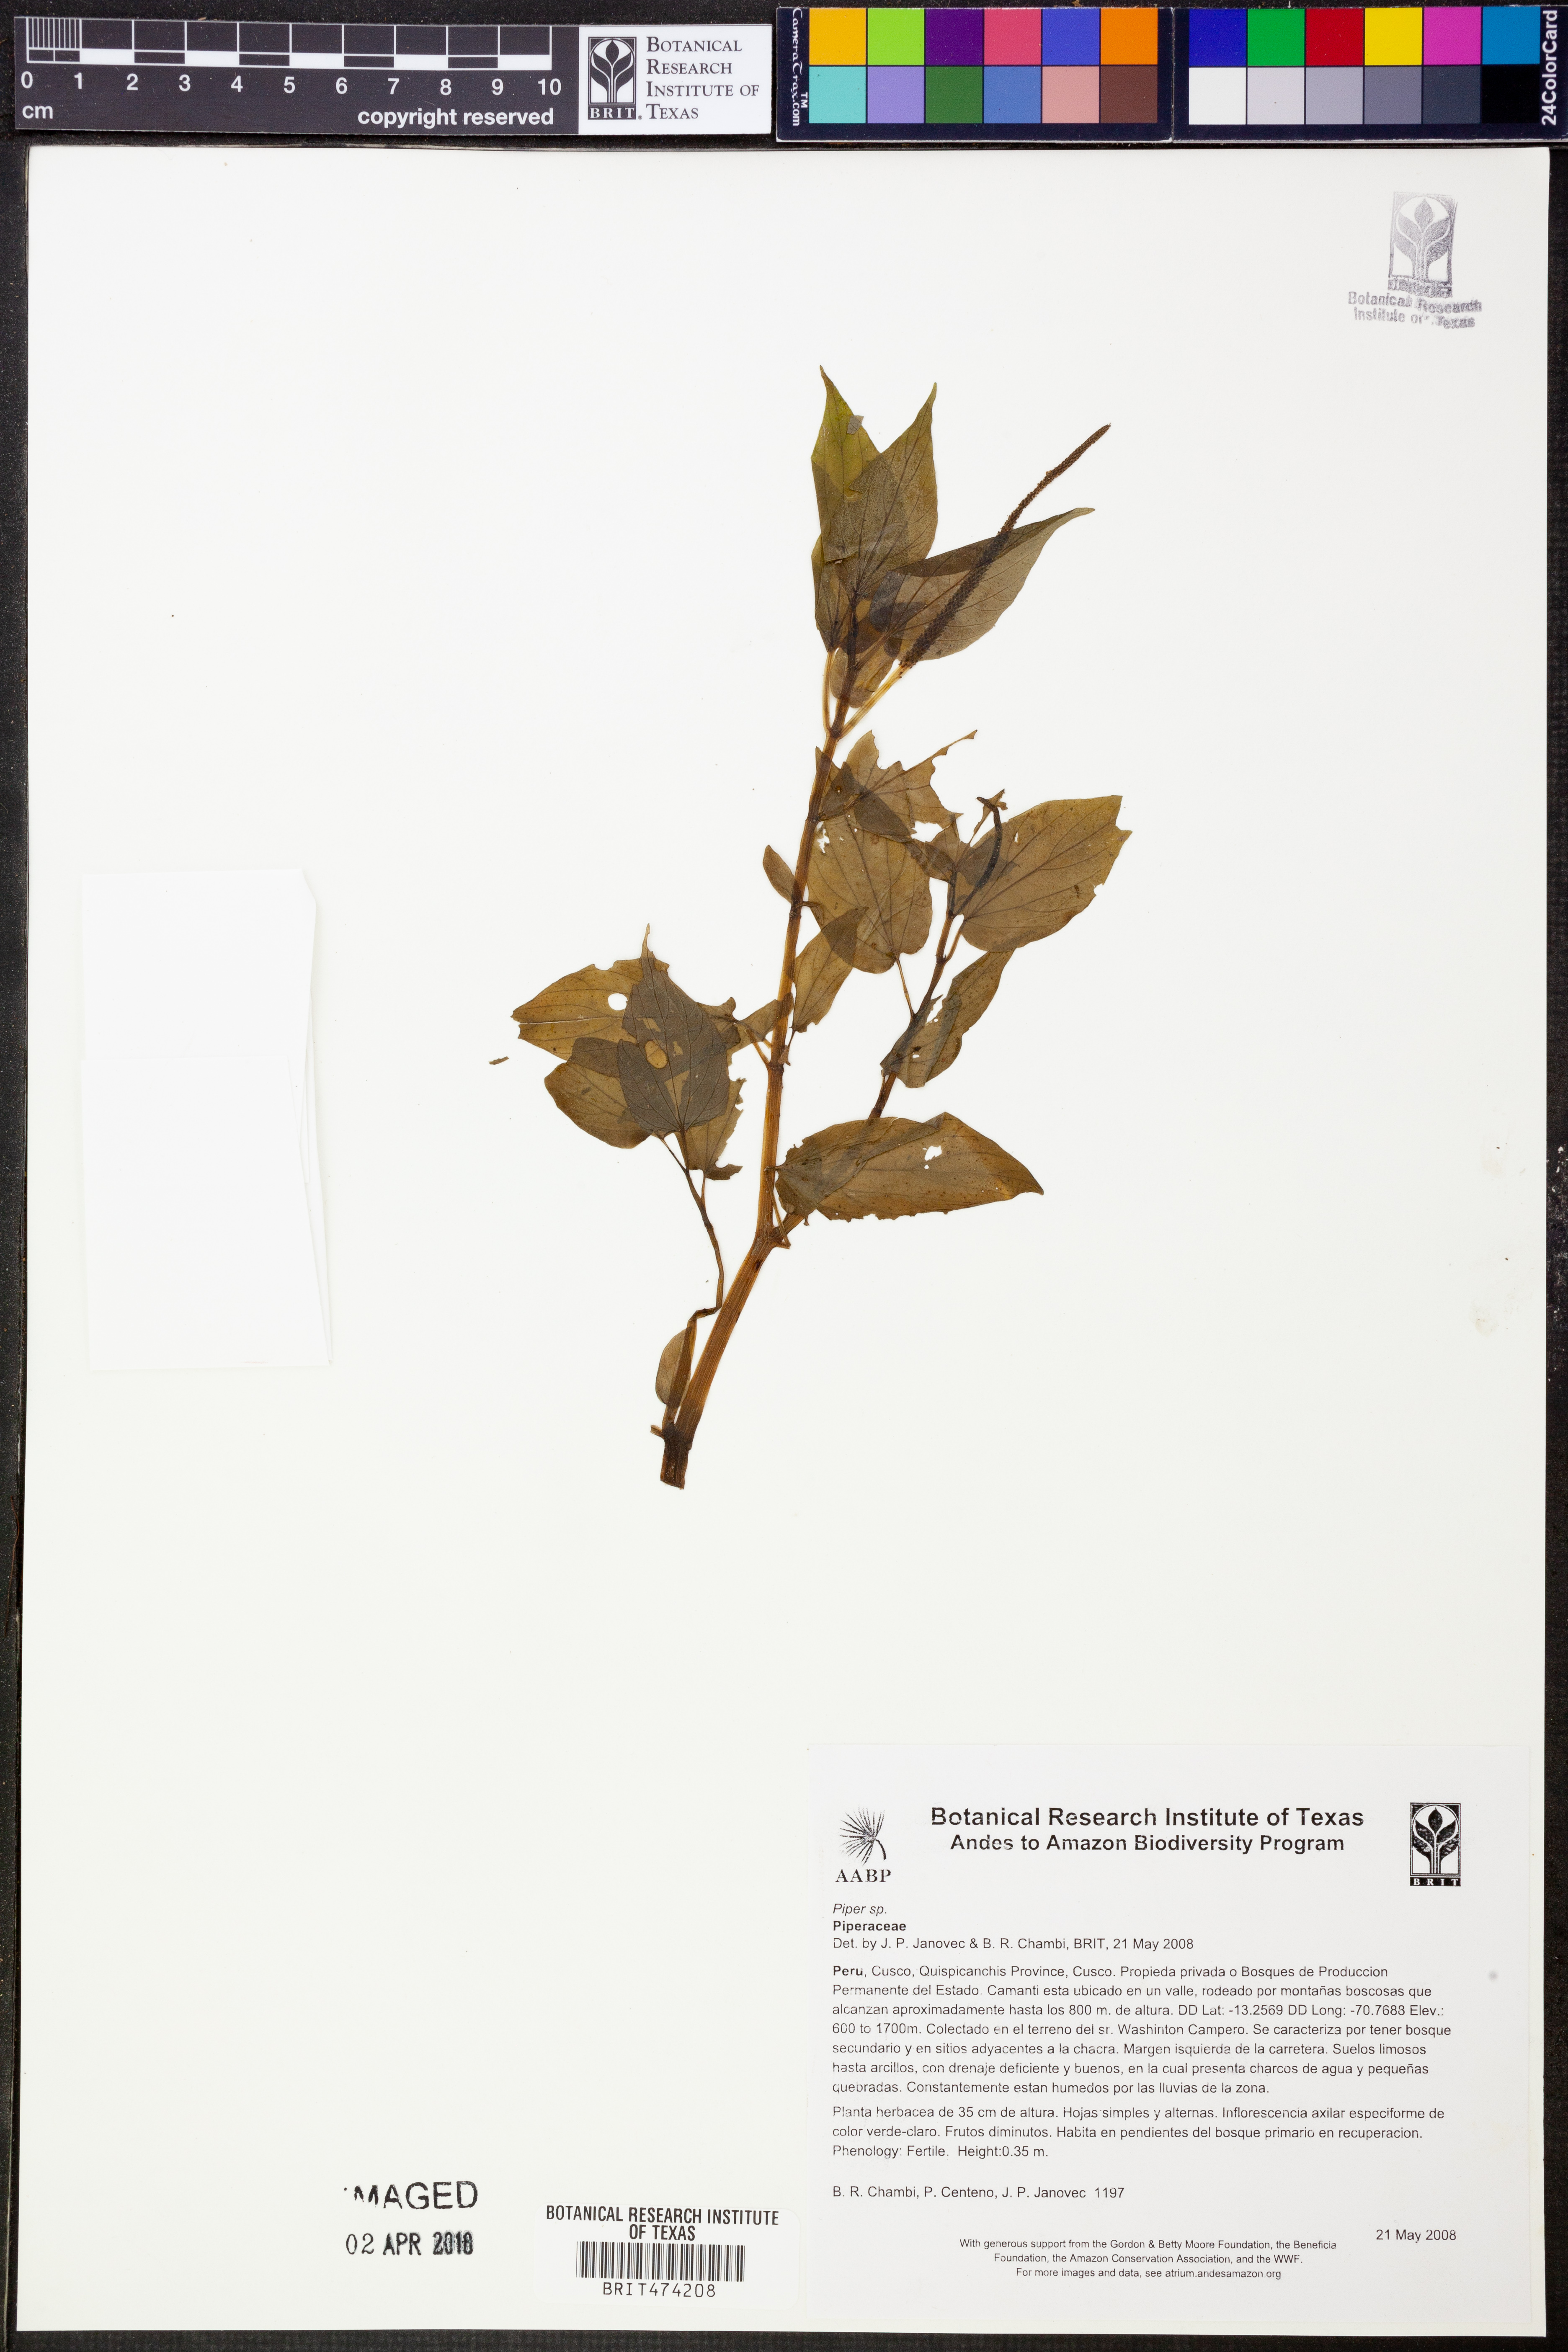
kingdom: Plantae
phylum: Tracheophyta
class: Magnoliopsida
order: Piperales
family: Piperaceae
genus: Piper
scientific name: Piper
